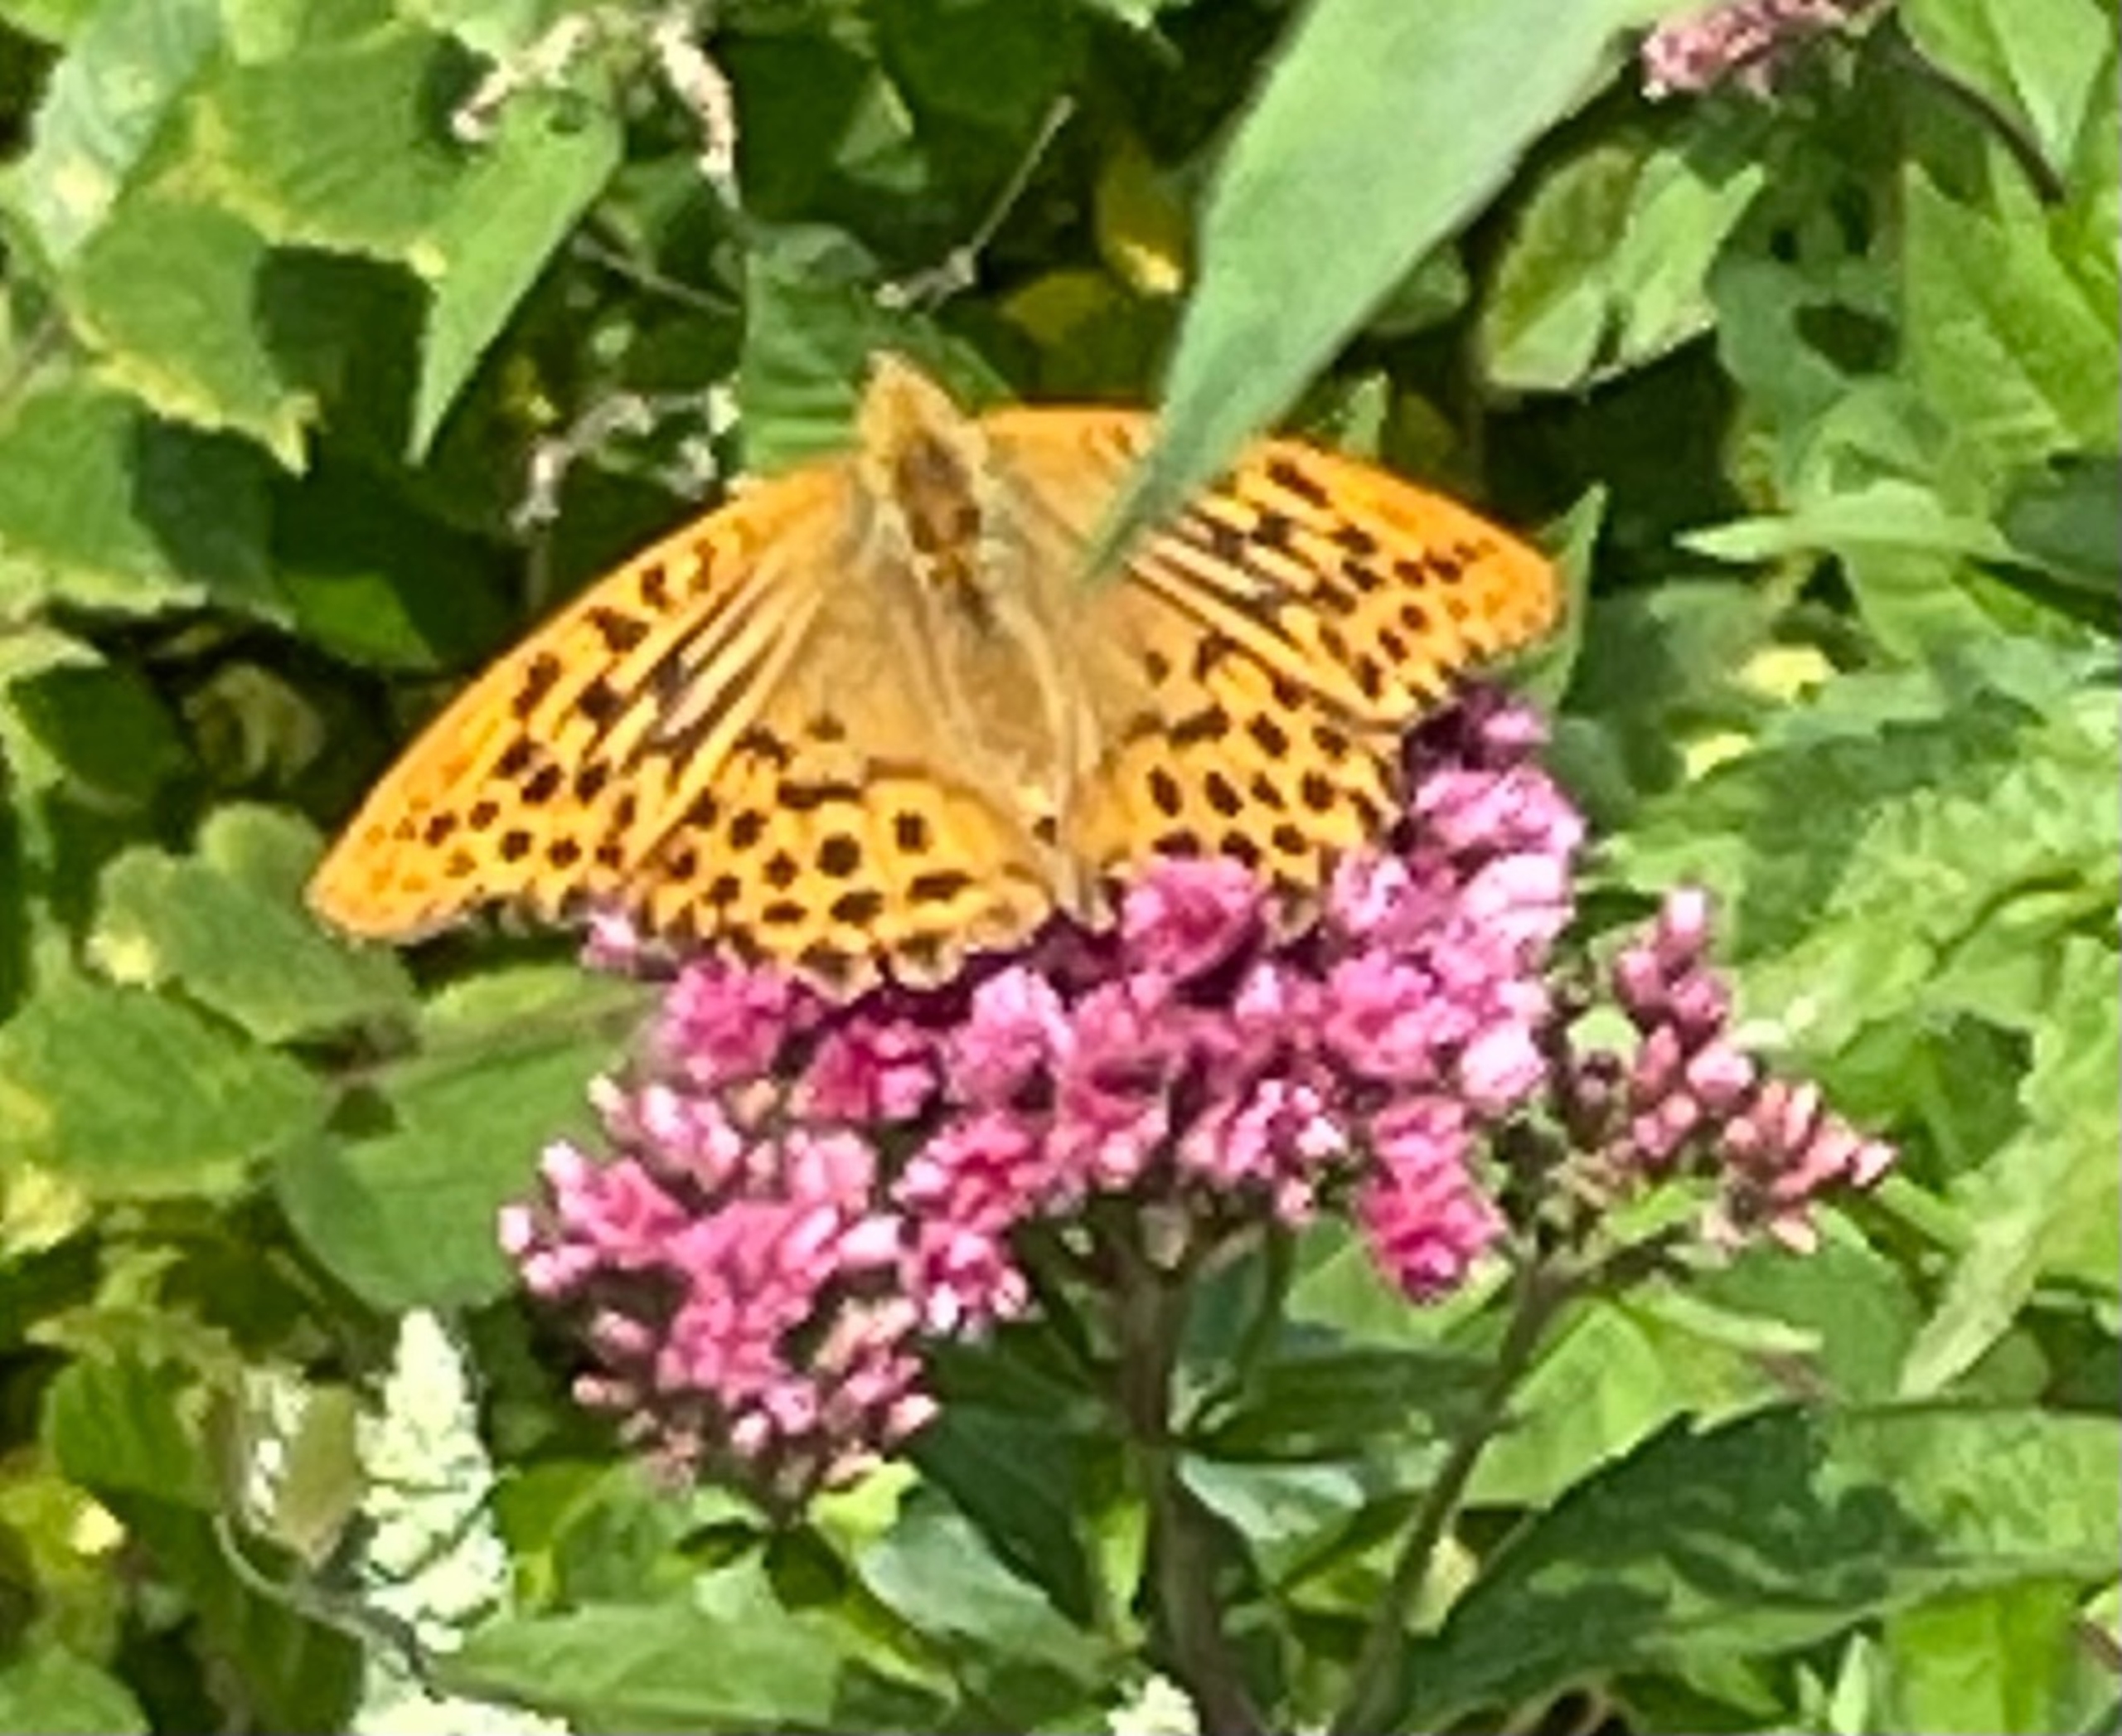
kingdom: Animalia
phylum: Arthropoda
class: Insecta
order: Lepidoptera
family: Nymphalidae
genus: Argynnis
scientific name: Argynnis paphia
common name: Kejserkåbe
